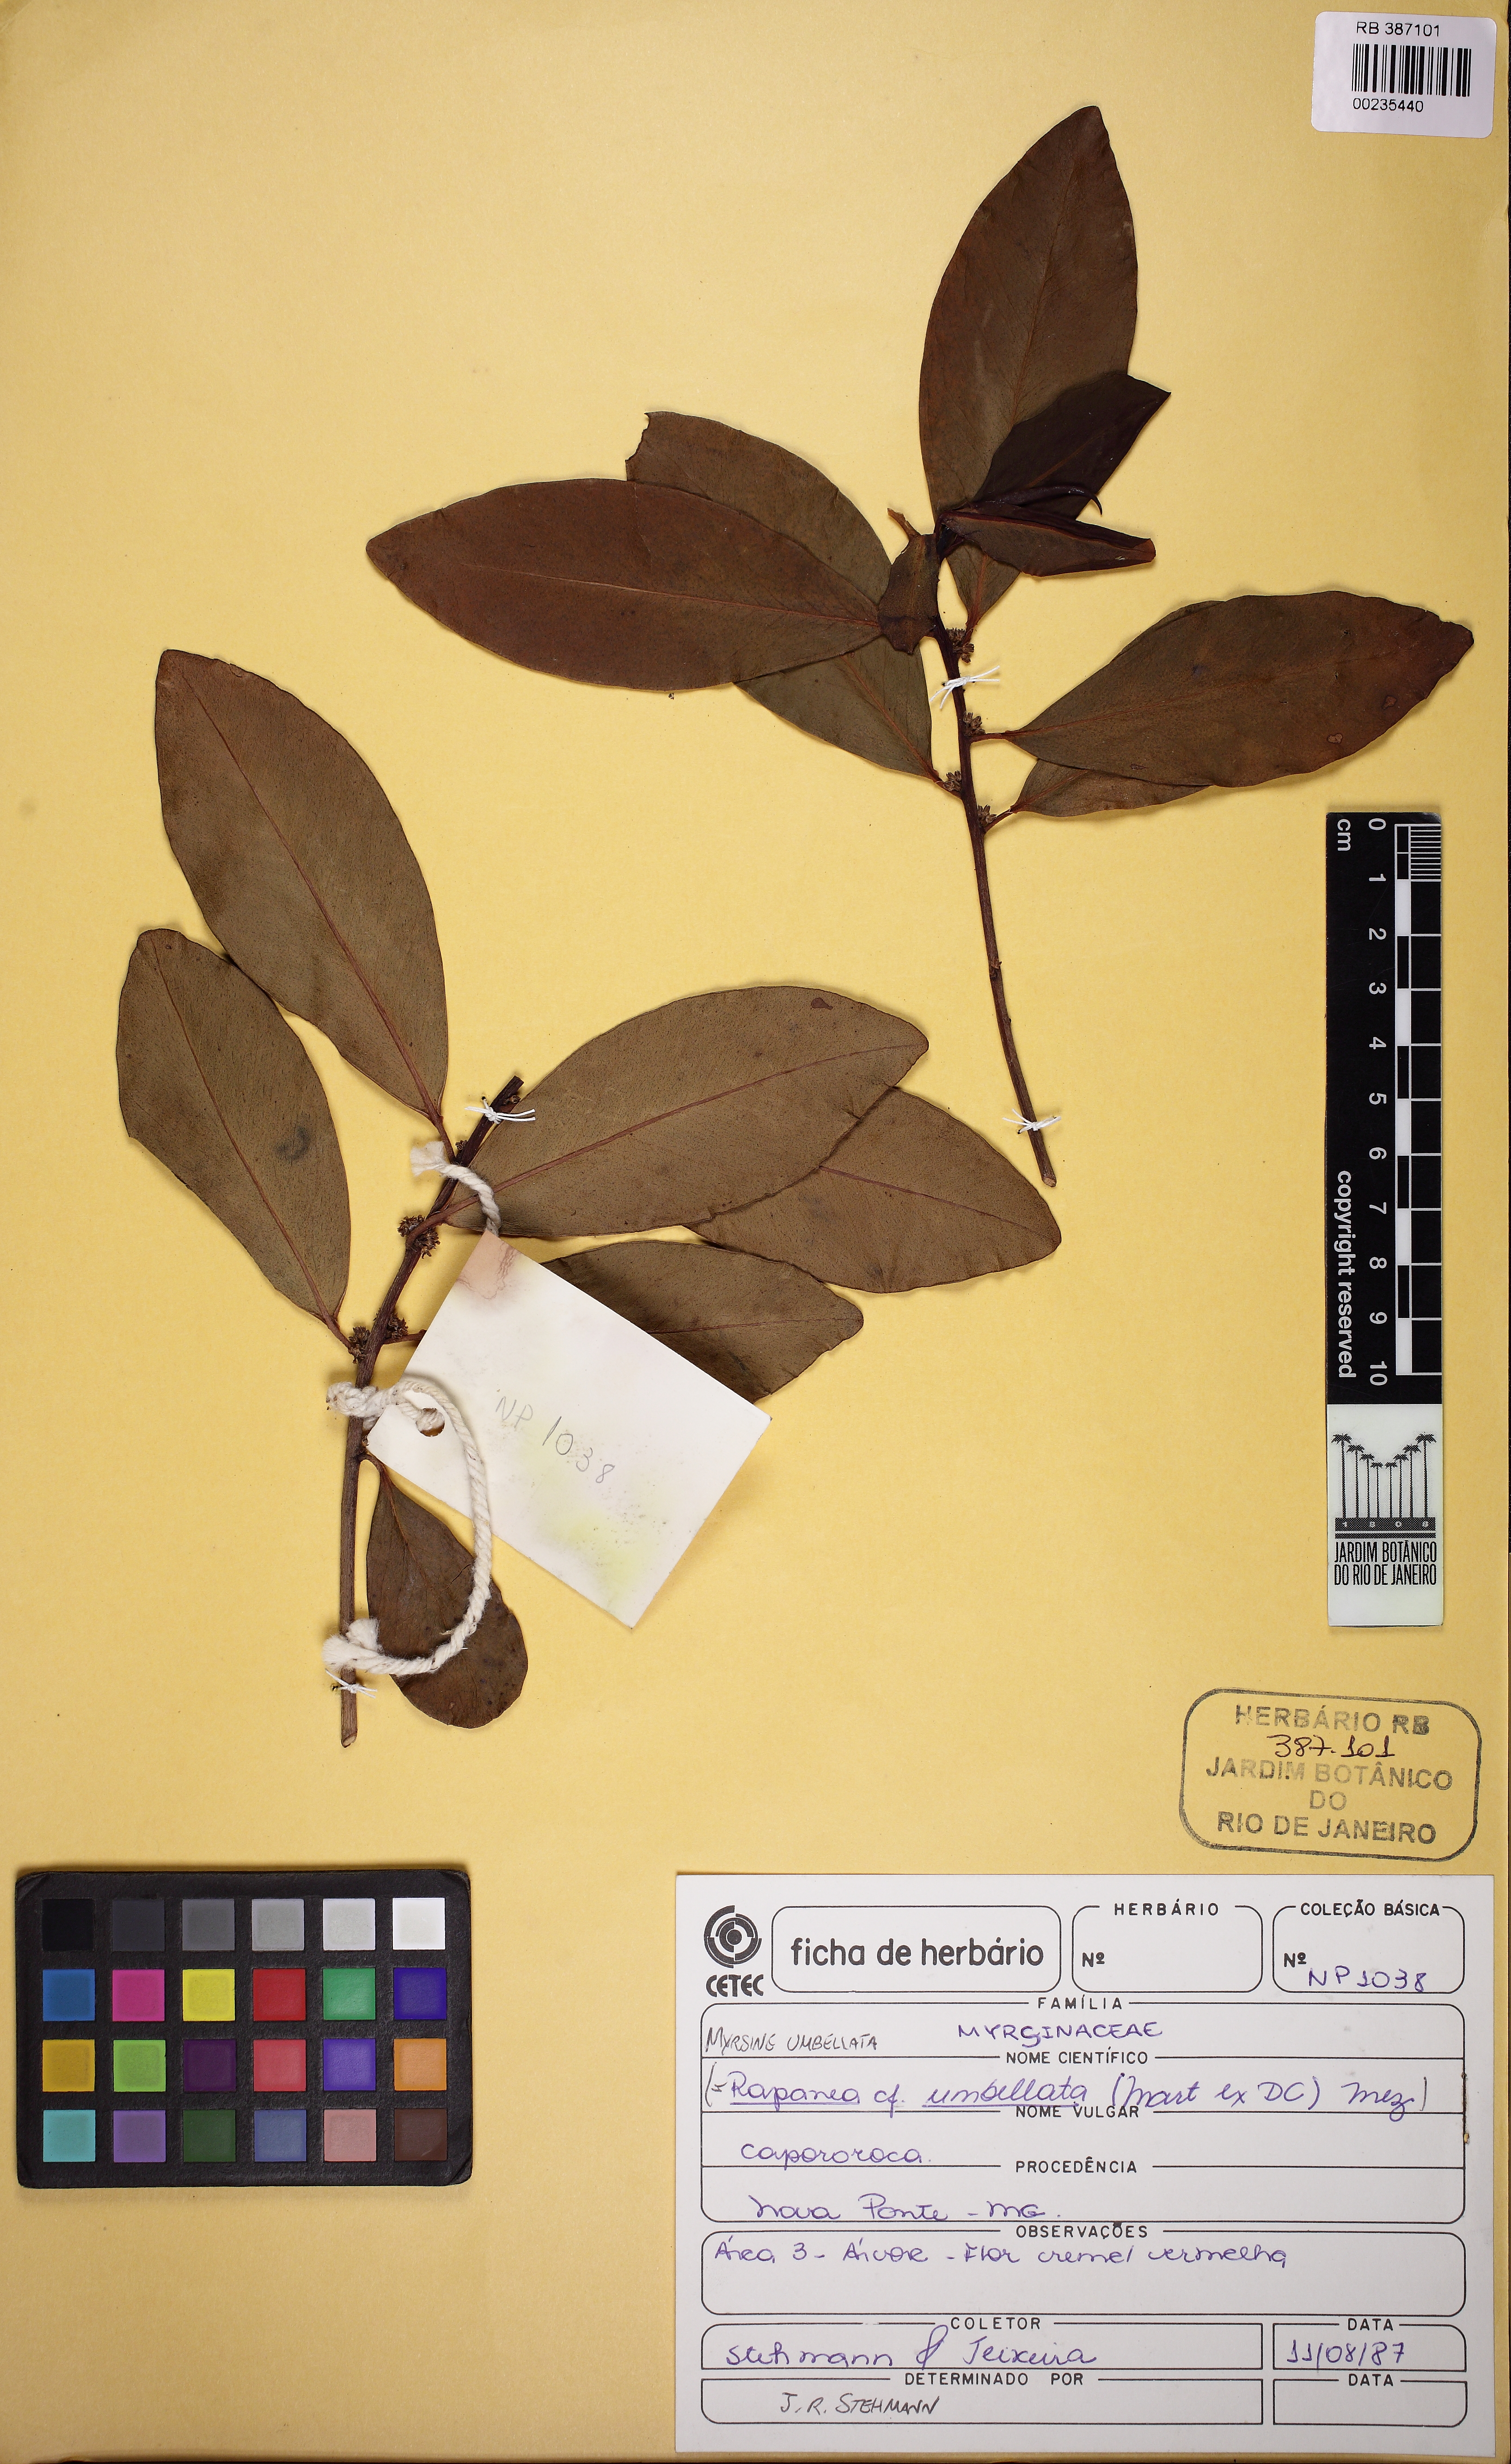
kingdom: Plantae
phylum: Tracheophyta
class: Magnoliopsida
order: Ericales
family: Primulaceae
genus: Myrsine
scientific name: Myrsine umbellata
